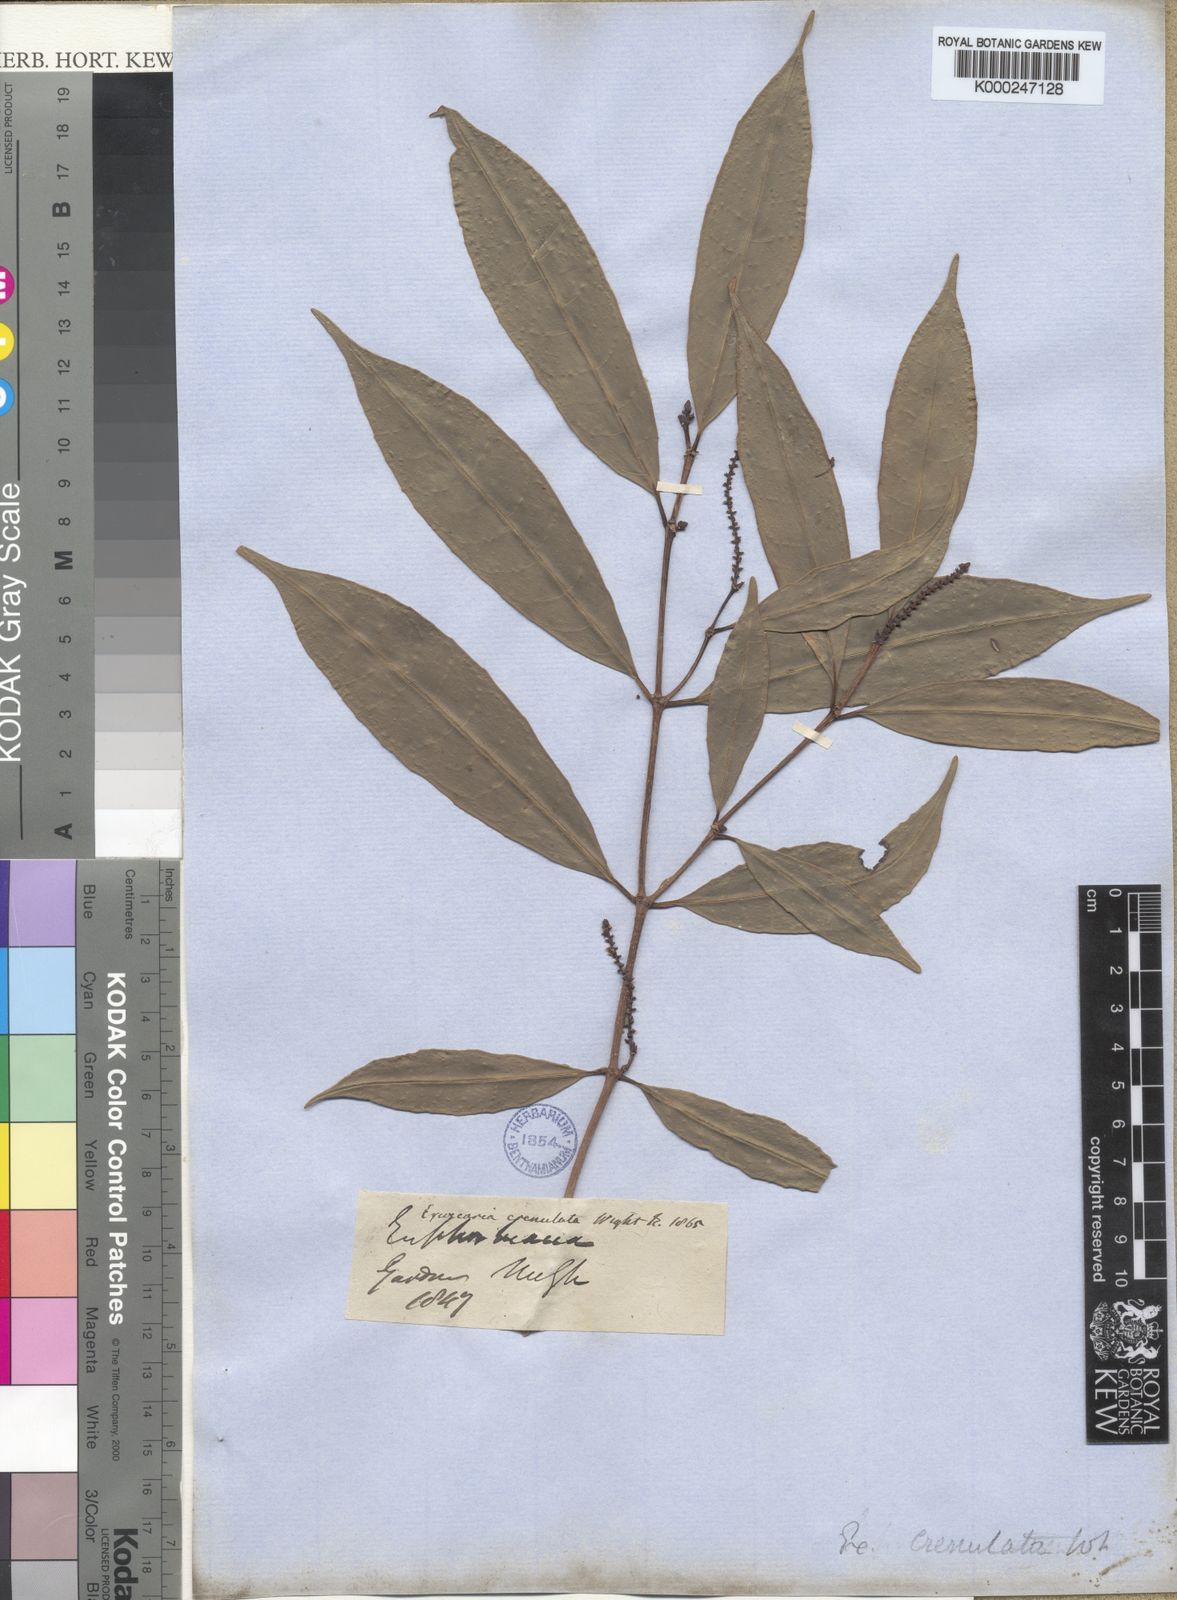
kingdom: Plantae
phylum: Tracheophyta
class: Magnoliopsida
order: Malpighiales
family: Euphorbiaceae
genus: Excoecaria
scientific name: Excoecaria oppositifolia
